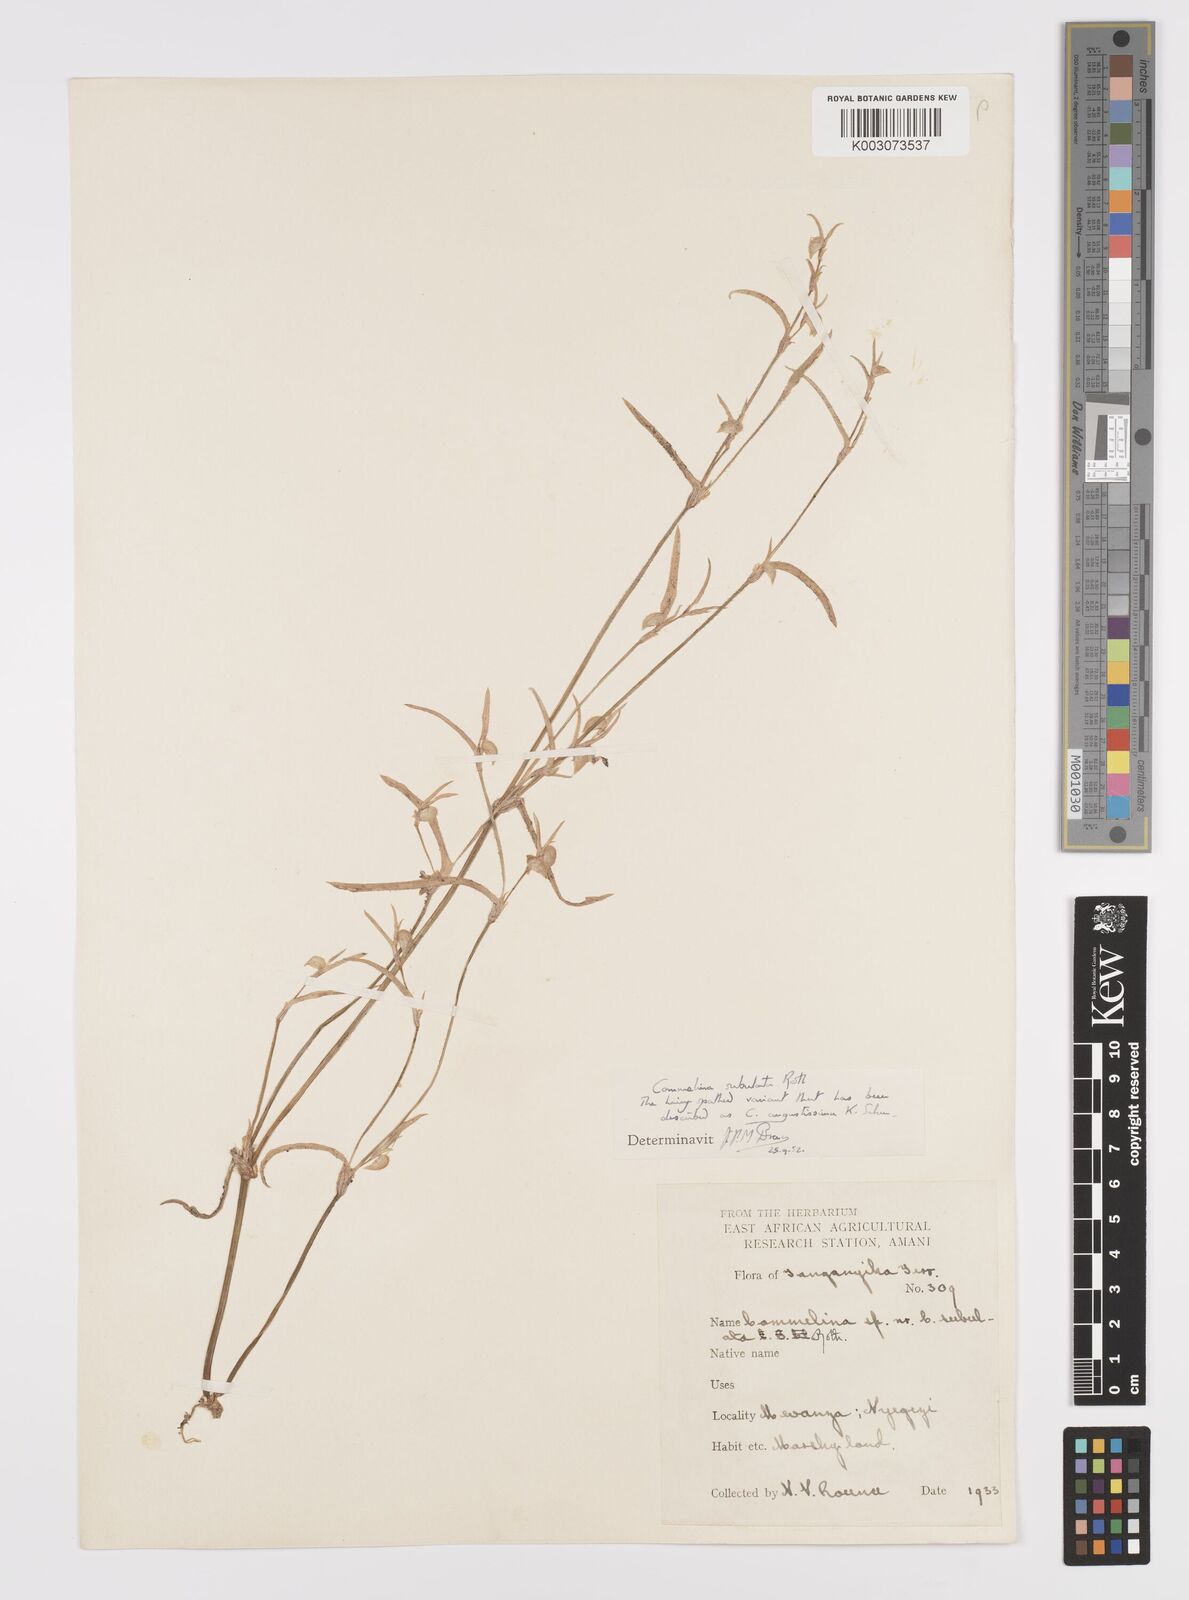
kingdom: Plantae
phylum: Tracheophyta
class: Liliopsida
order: Commelinales
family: Commelinaceae
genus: Commelina
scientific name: Commelina subulata
